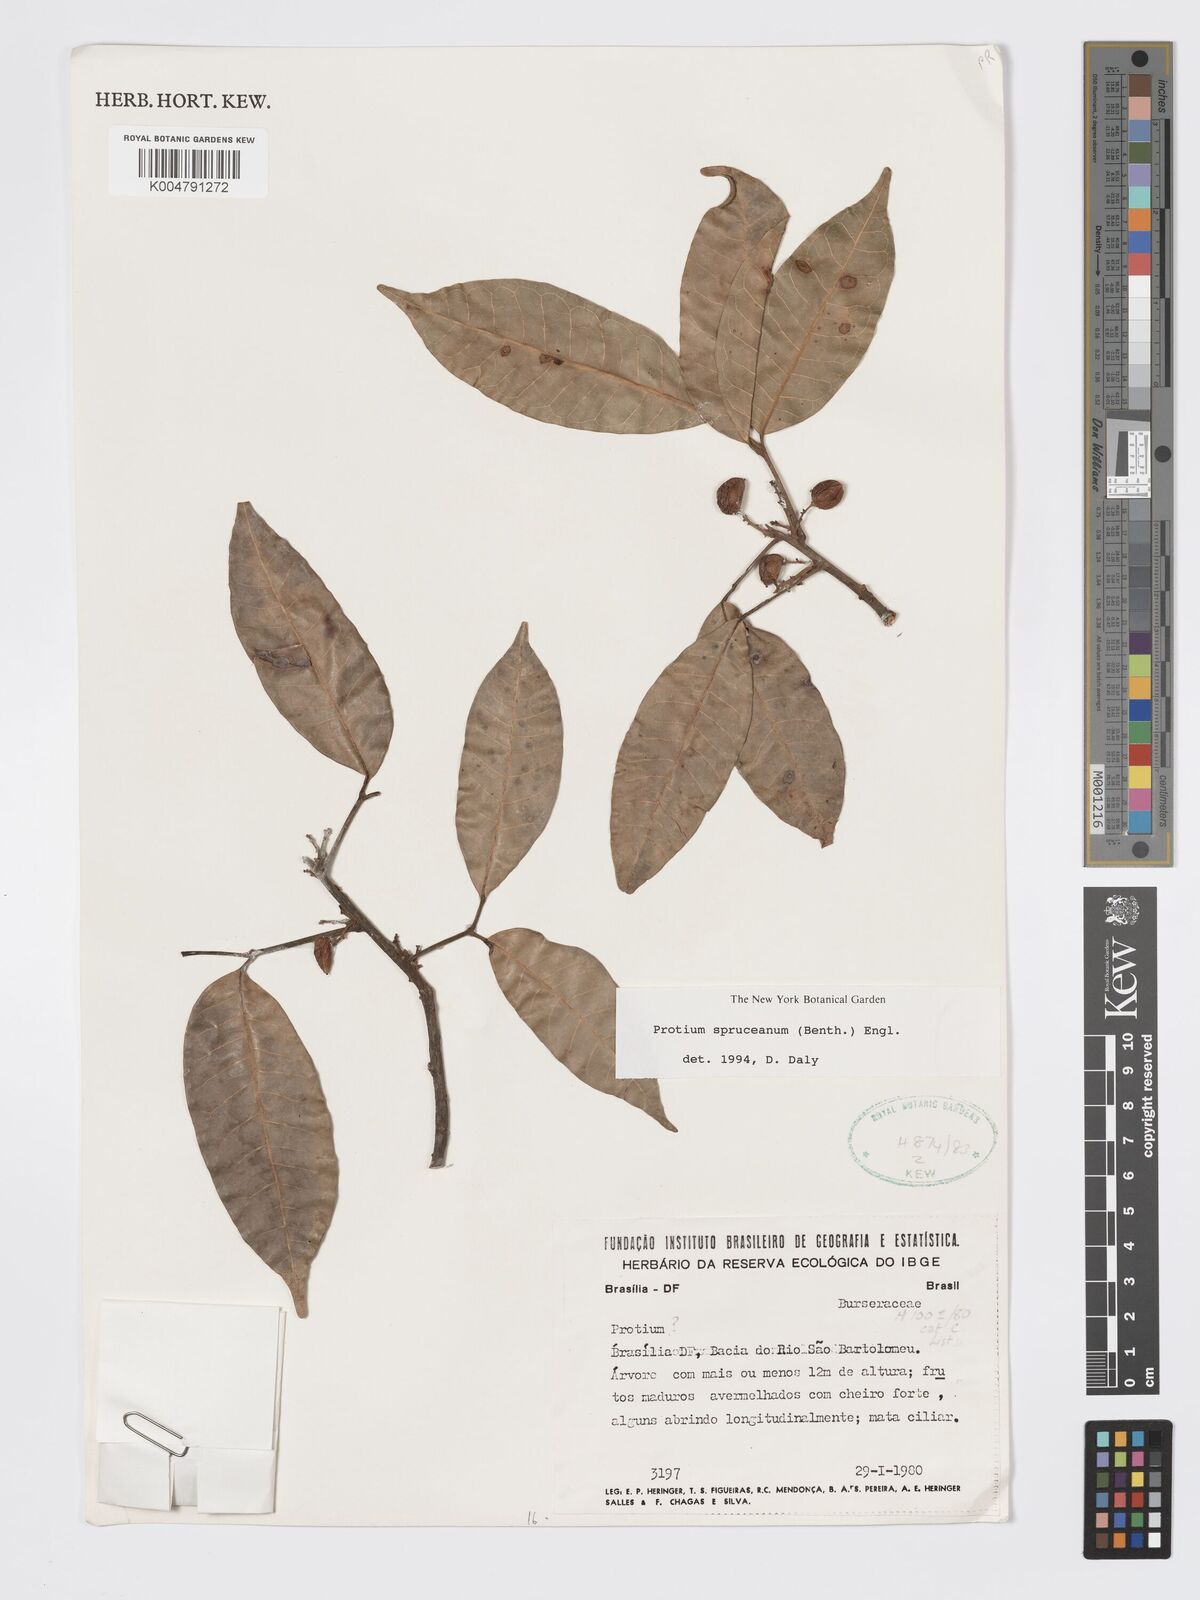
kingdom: Plantae
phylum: Tracheophyta
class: Magnoliopsida
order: Sapindales
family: Burseraceae
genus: Protium
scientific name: Protium spruceanum
